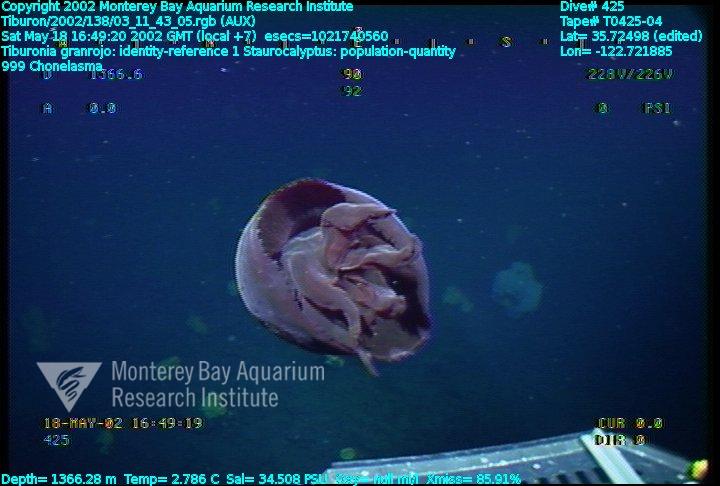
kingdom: Animalia
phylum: Porifera
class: Hexactinellida
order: Sceptrulophora
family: Euretidae
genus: Chonelasma
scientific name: Chonelasma
